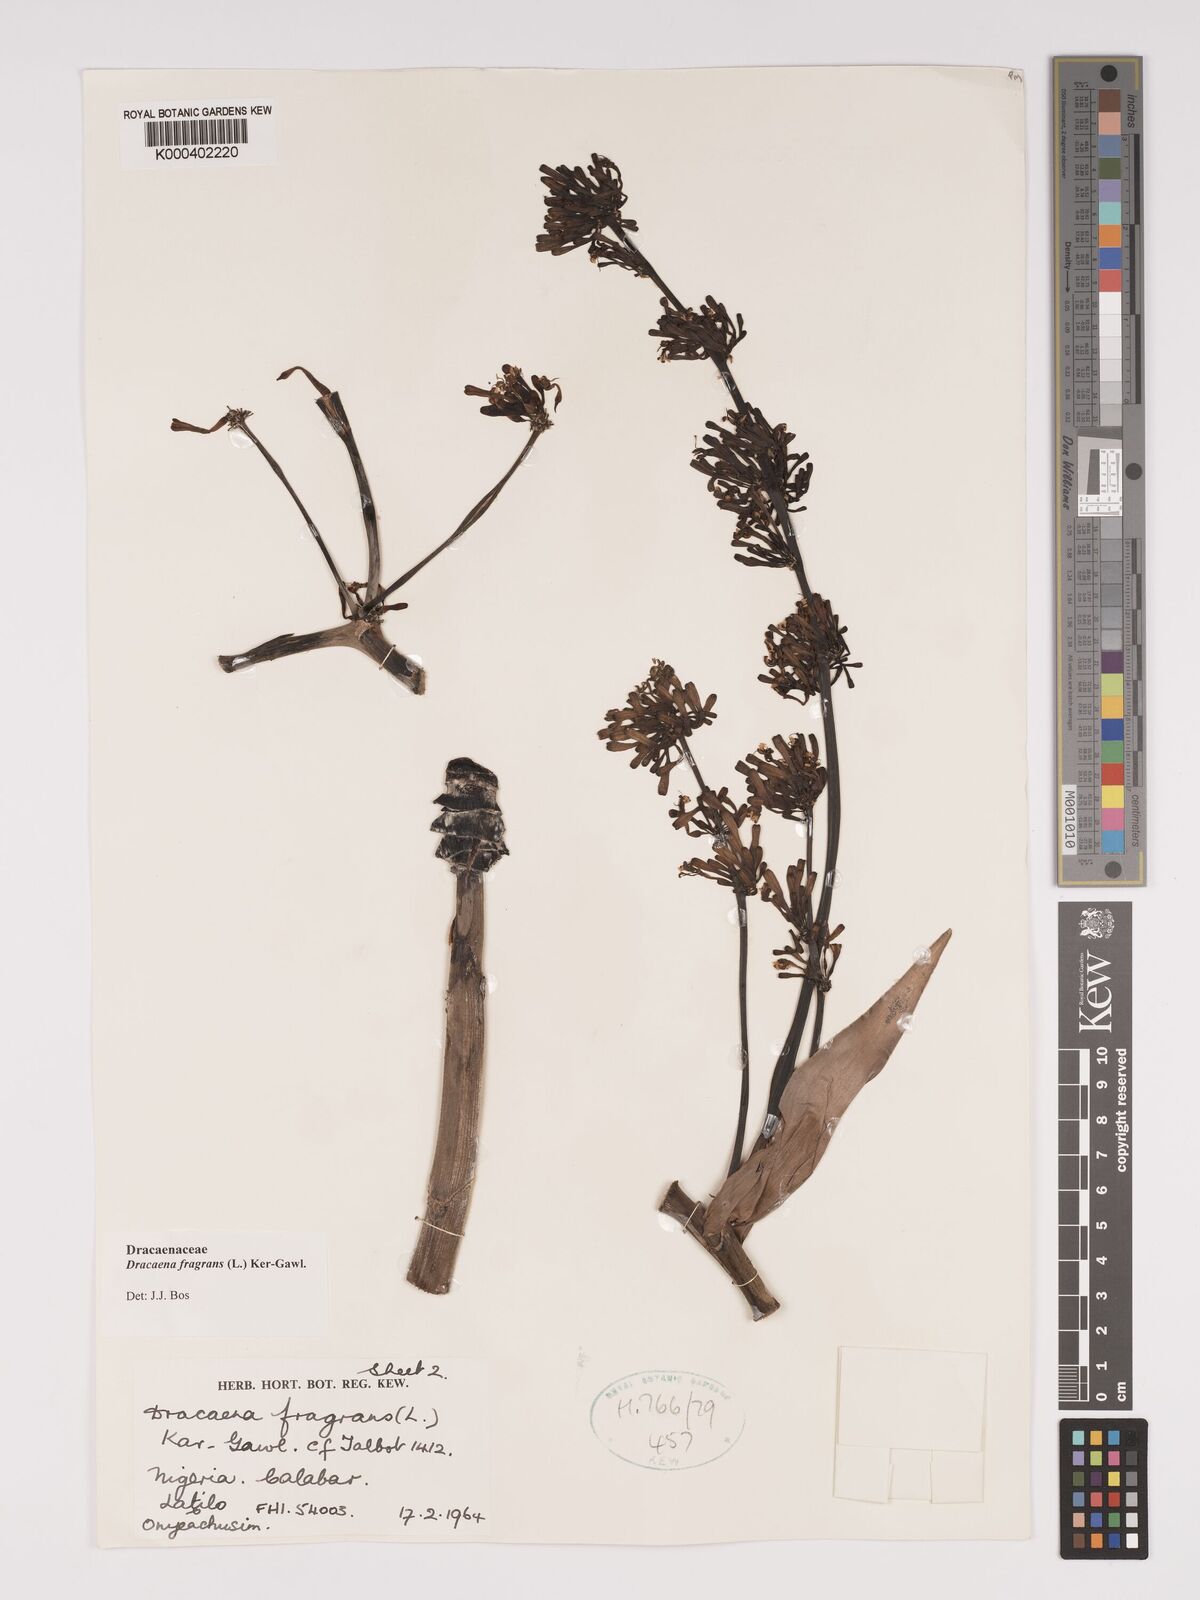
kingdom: Plantae
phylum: Tracheophyta
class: Liliopsida
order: Asparagales
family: Asparagaceae
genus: Dracaena
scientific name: Dracaena fragrans
